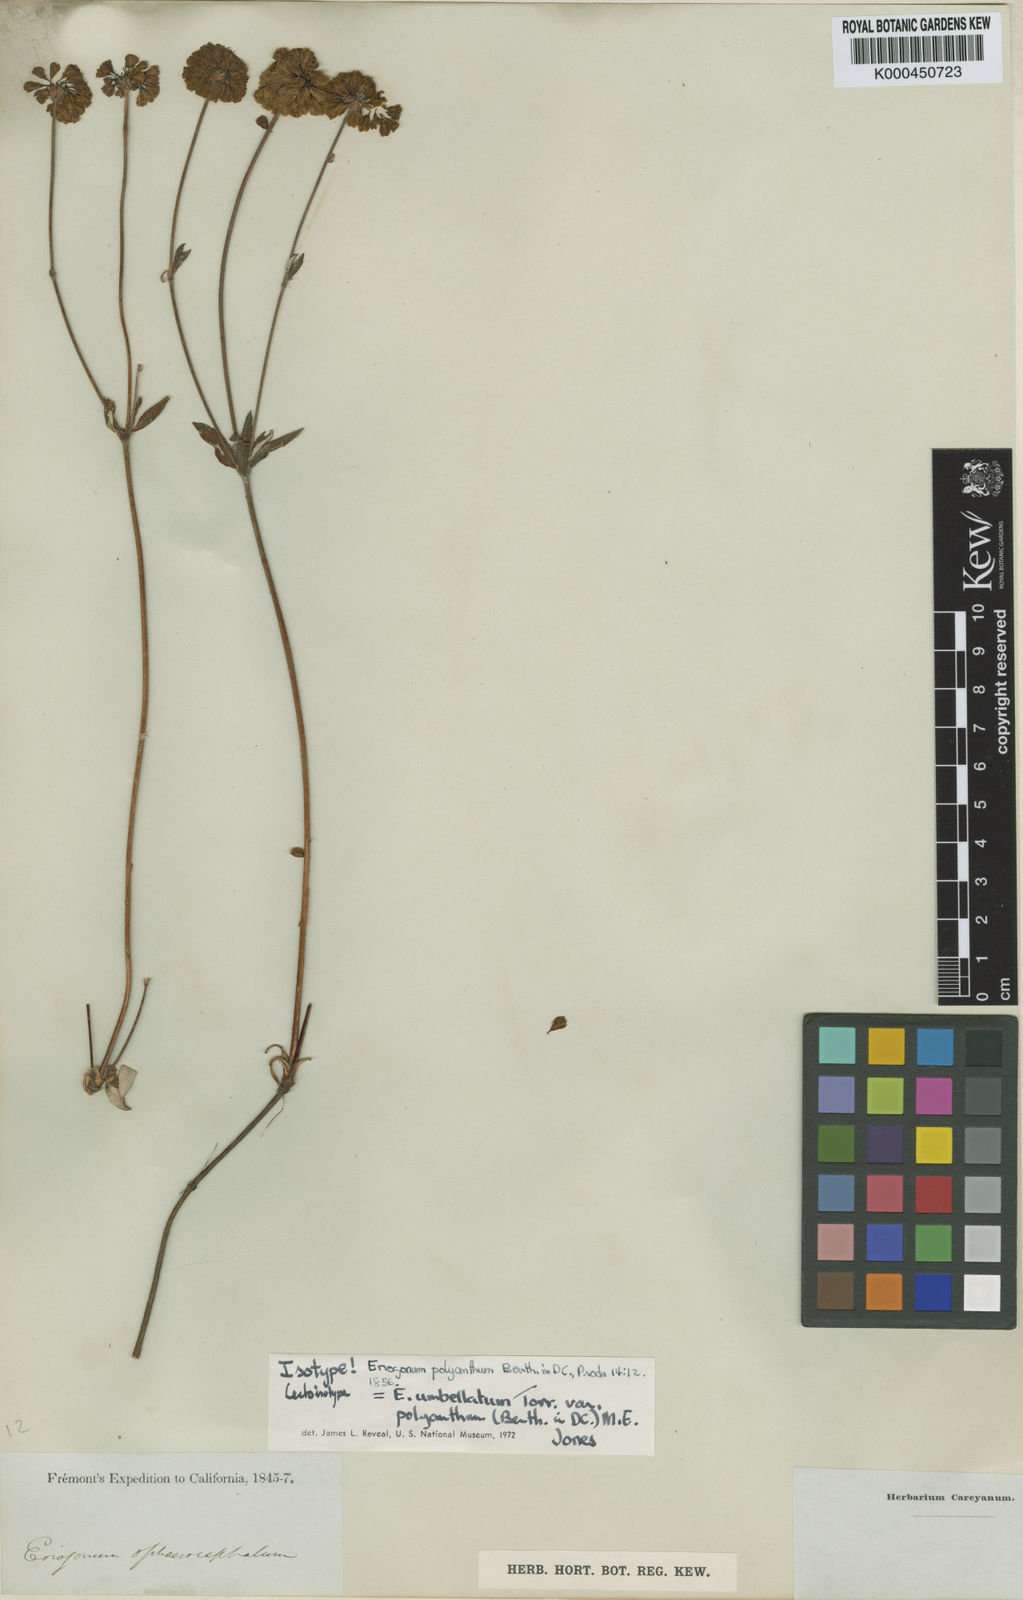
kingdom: Plantae
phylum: Tracheophyta
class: Magnoliopsida
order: Caryophyllales
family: Polygonaceae
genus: Eriogonum
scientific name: Eriogonum umbellatum
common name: Sulfur-buckwheat
